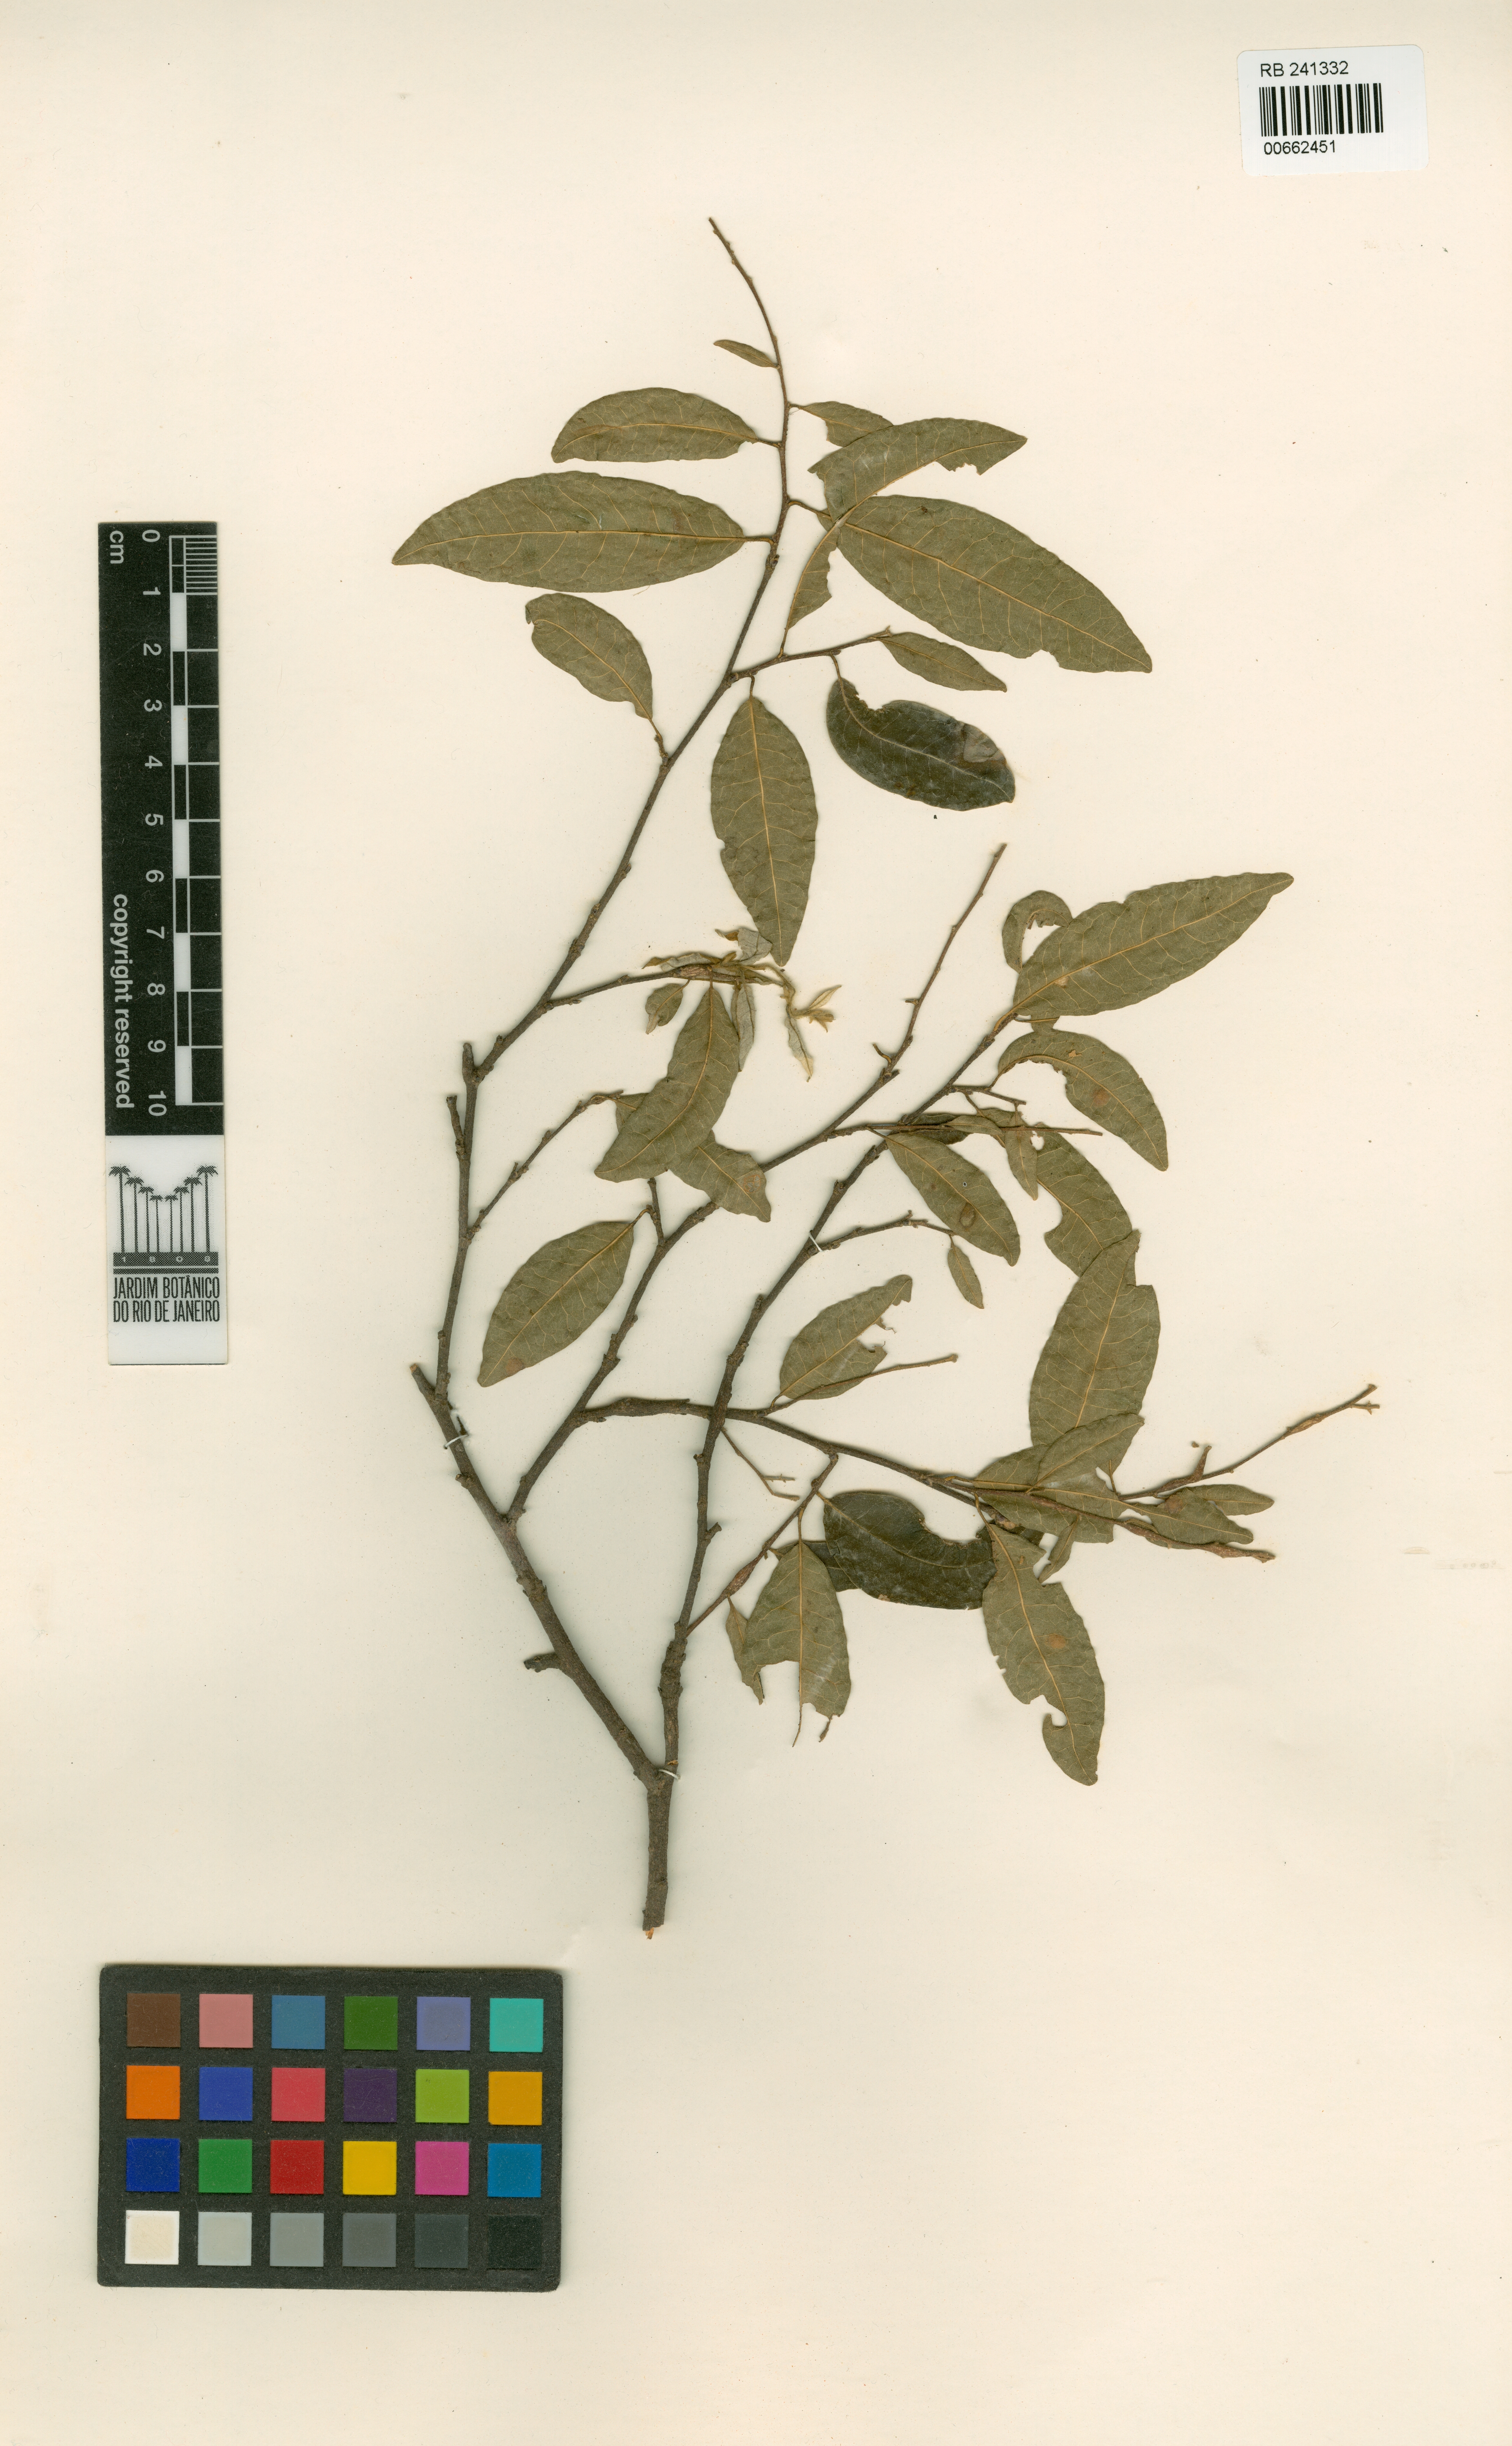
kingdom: Plantae
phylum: Tracheophyta
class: Magnoliopsida
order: Malpighiales
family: Trigoniaceae
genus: Trigoniodendron
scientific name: Trigoniodendron spiritusanctense
